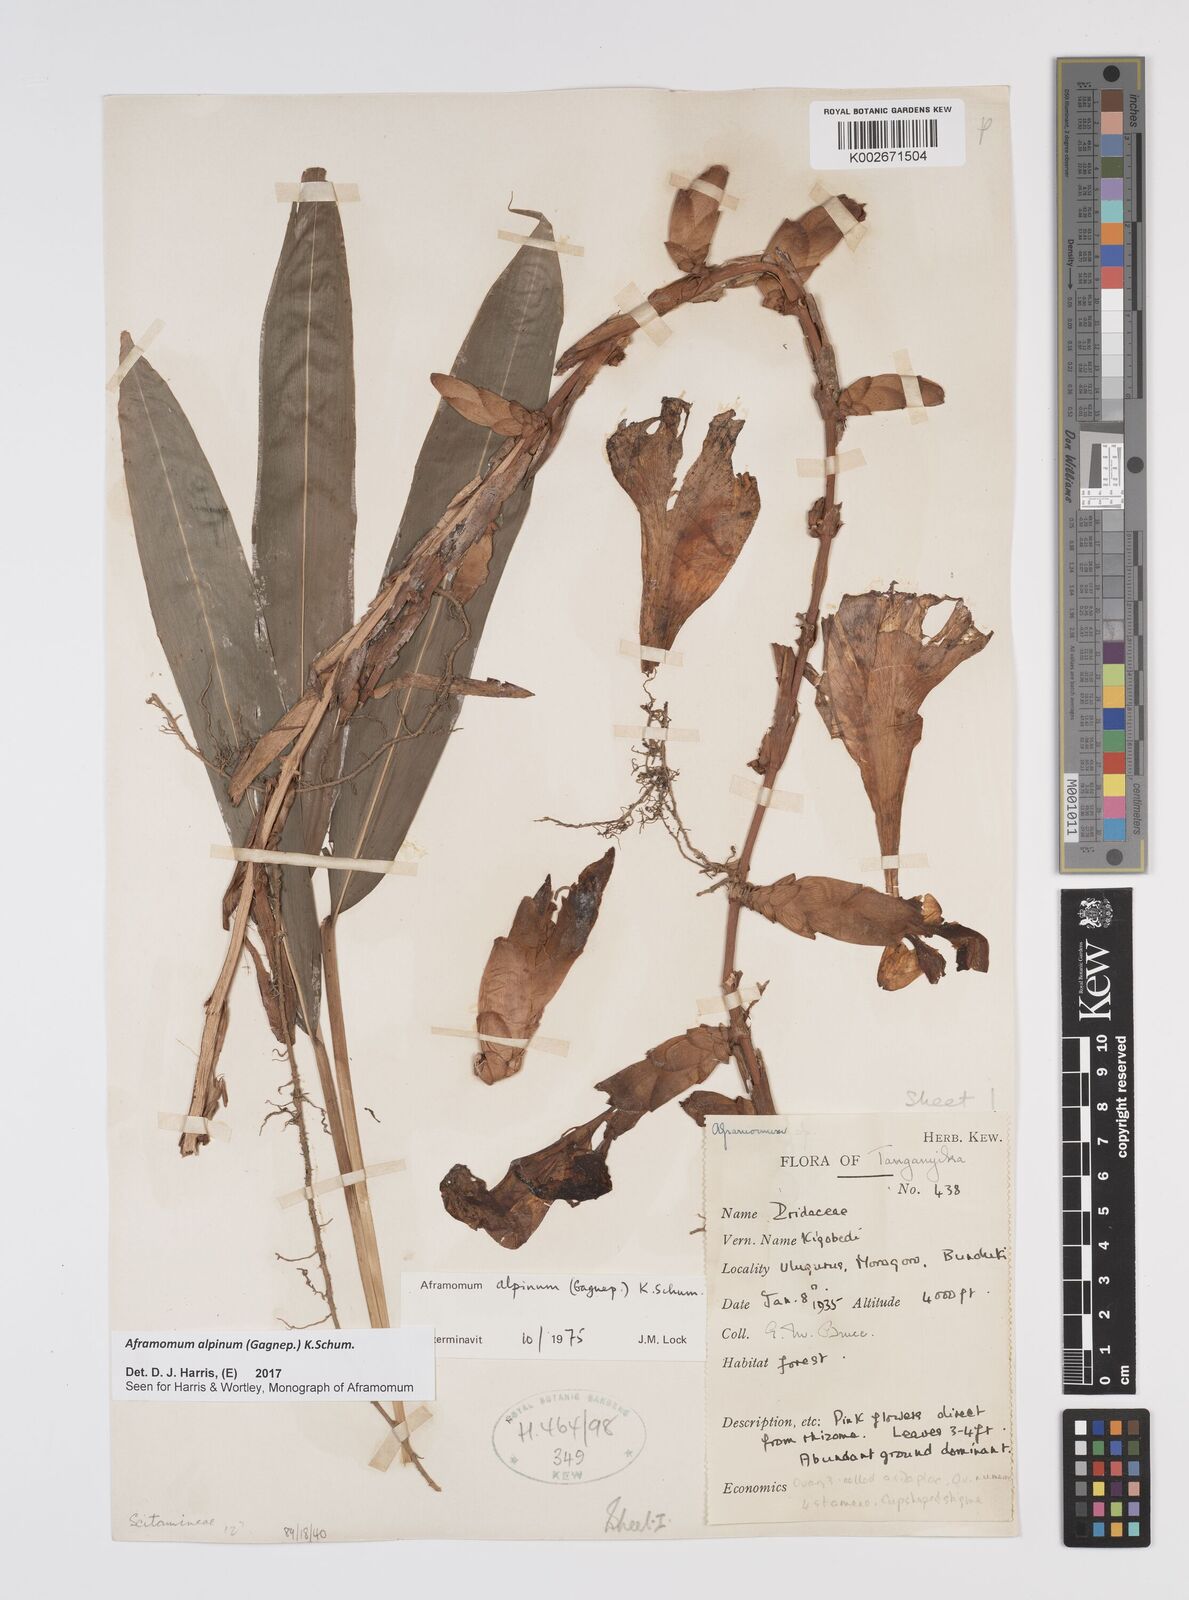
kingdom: Plantae
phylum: Tracheophyta
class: Liliopsida
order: Zingiberales
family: Zingiberaceae
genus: Aframomum
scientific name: Aframomum alpinum
